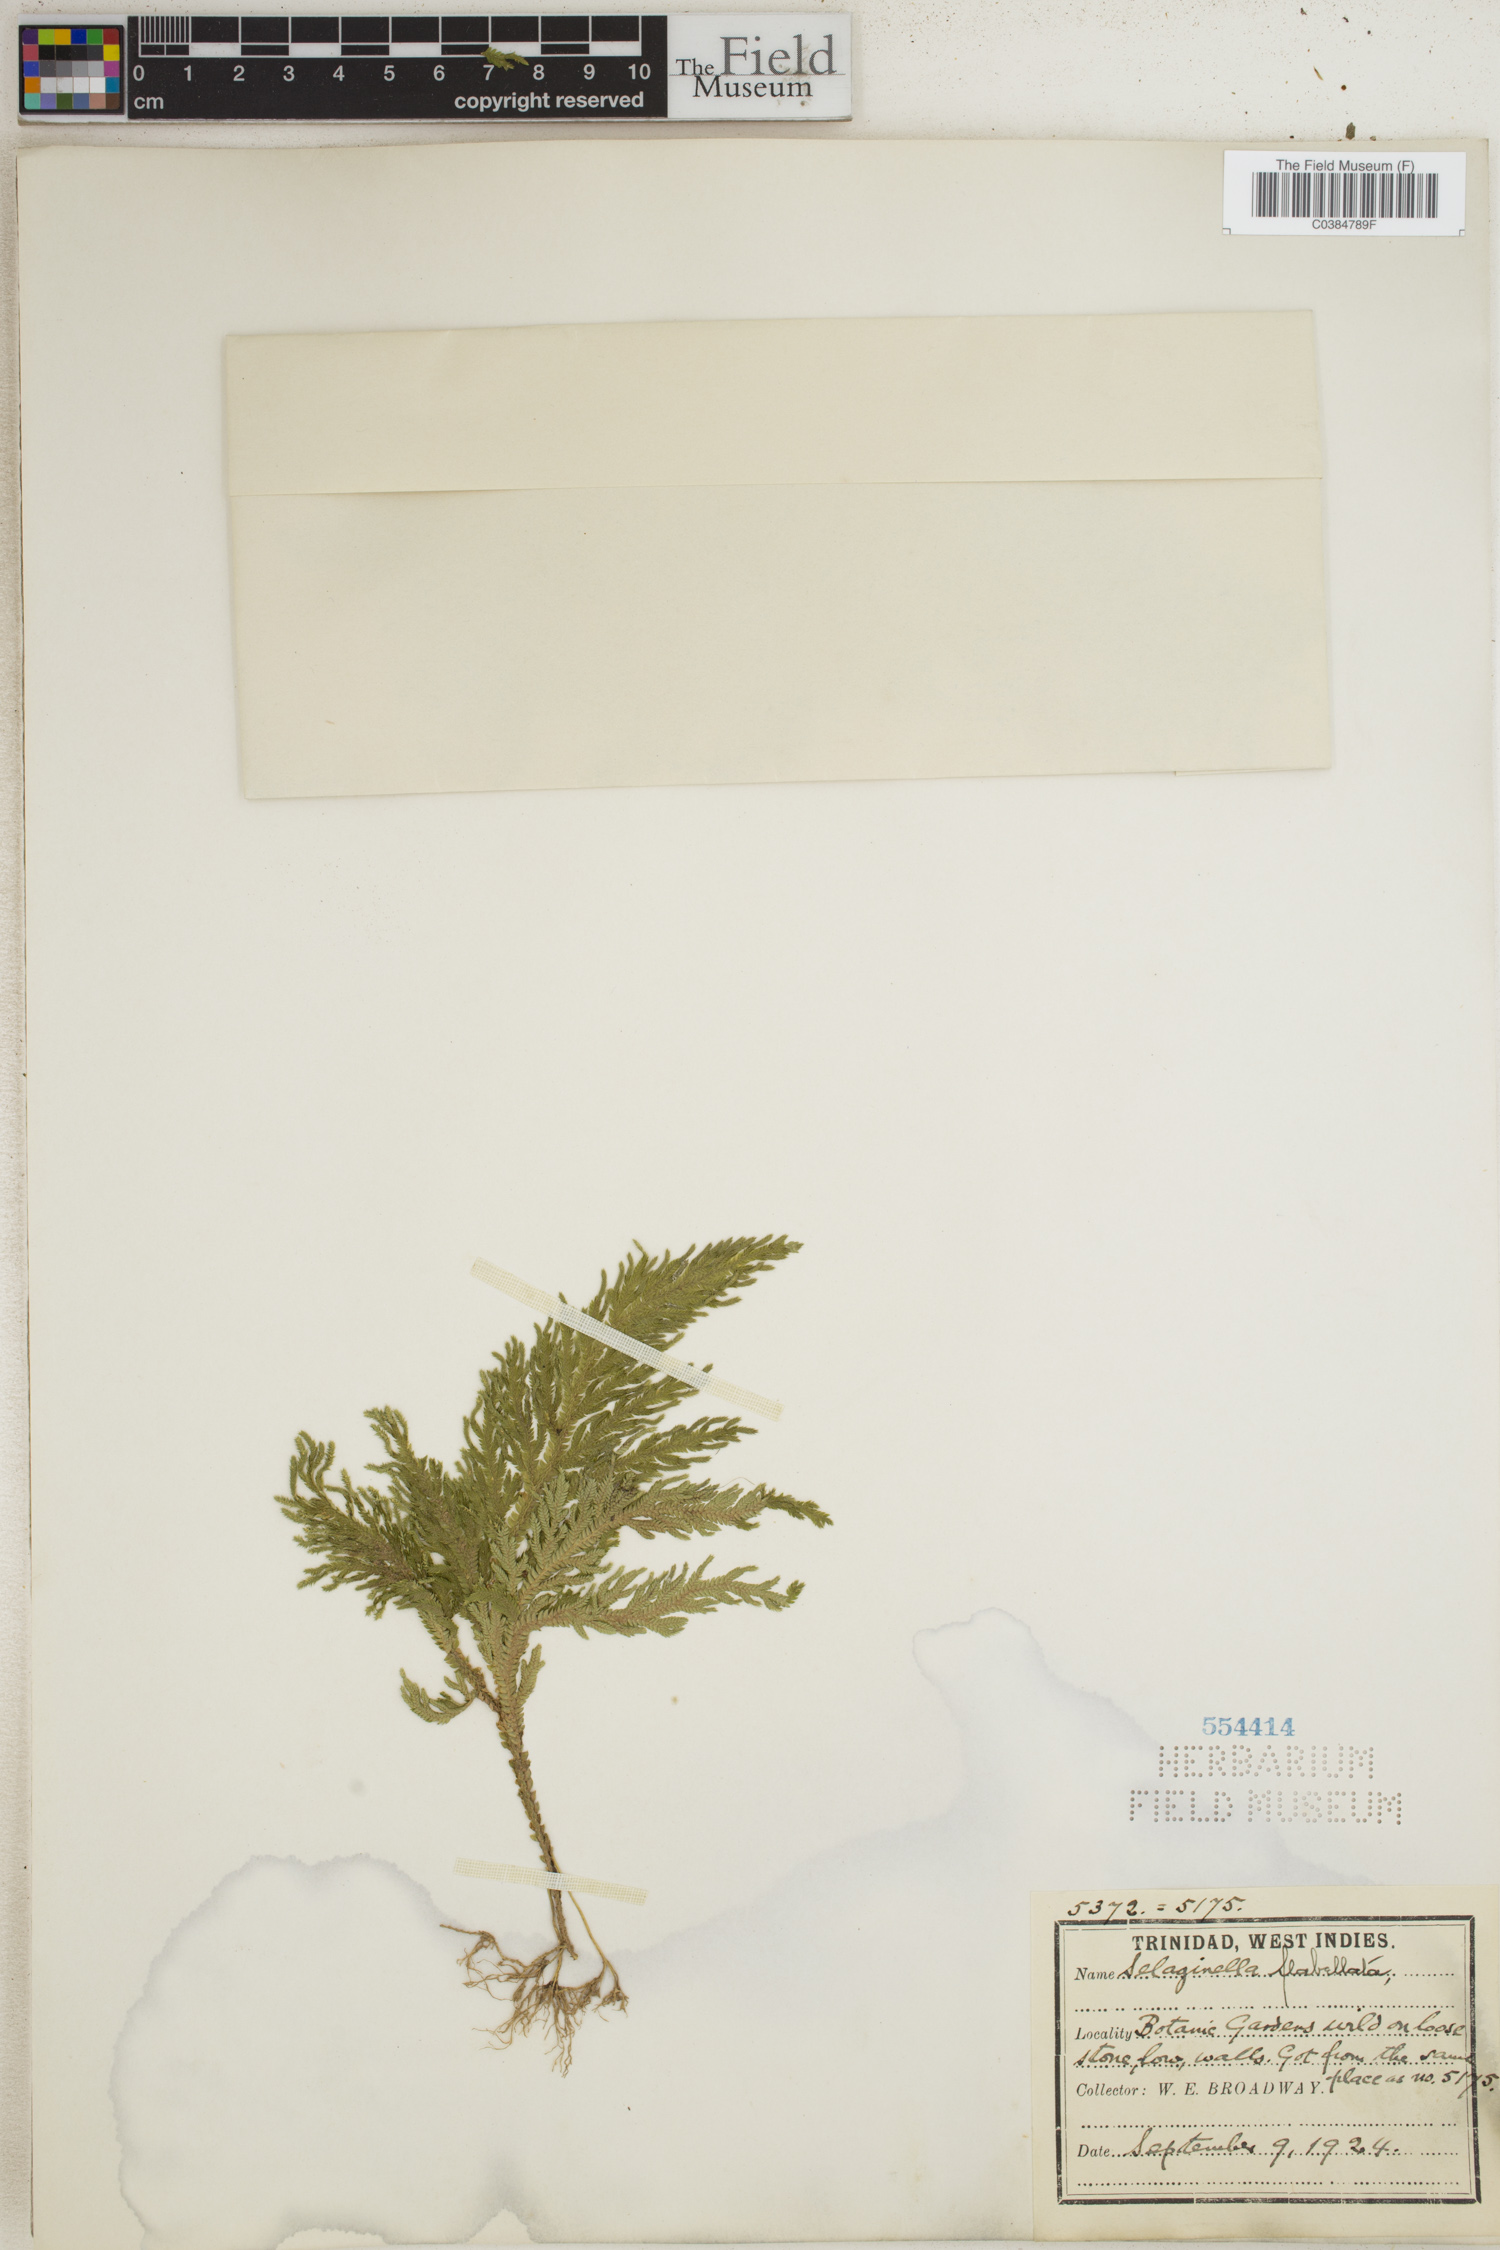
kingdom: Plantae
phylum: Tracheophyta
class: Lycopodiopsida
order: Selaginellales
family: Selaginellaceae
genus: Selaginella
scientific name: Selaginella flabellata
